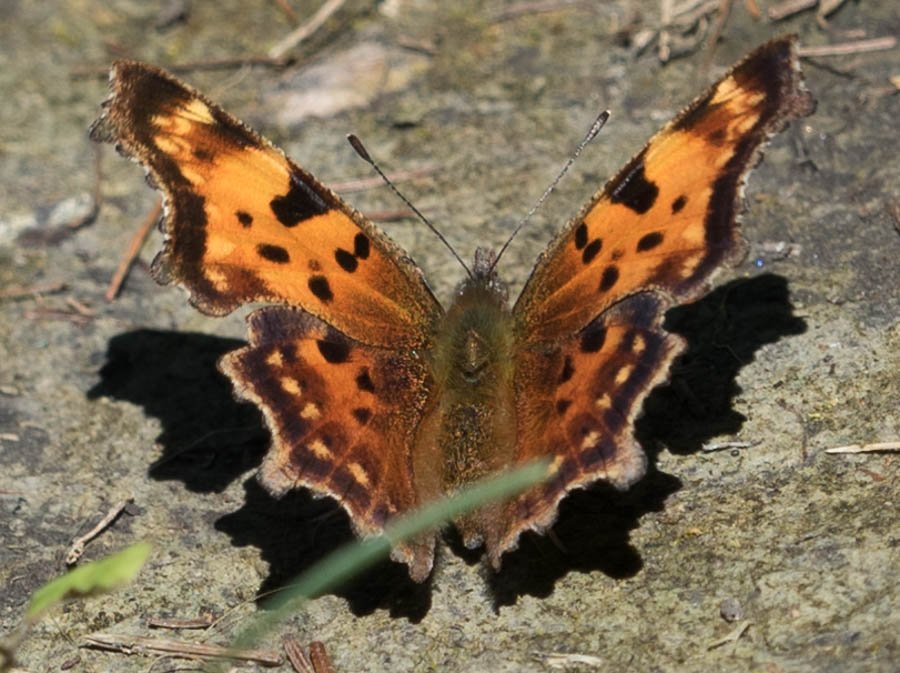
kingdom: Animalia
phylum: Arthropoda
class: Insecta
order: Lepidoptera
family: Nymphalidae
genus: Polygonia
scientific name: Polygonia faunus
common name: Green Comma
